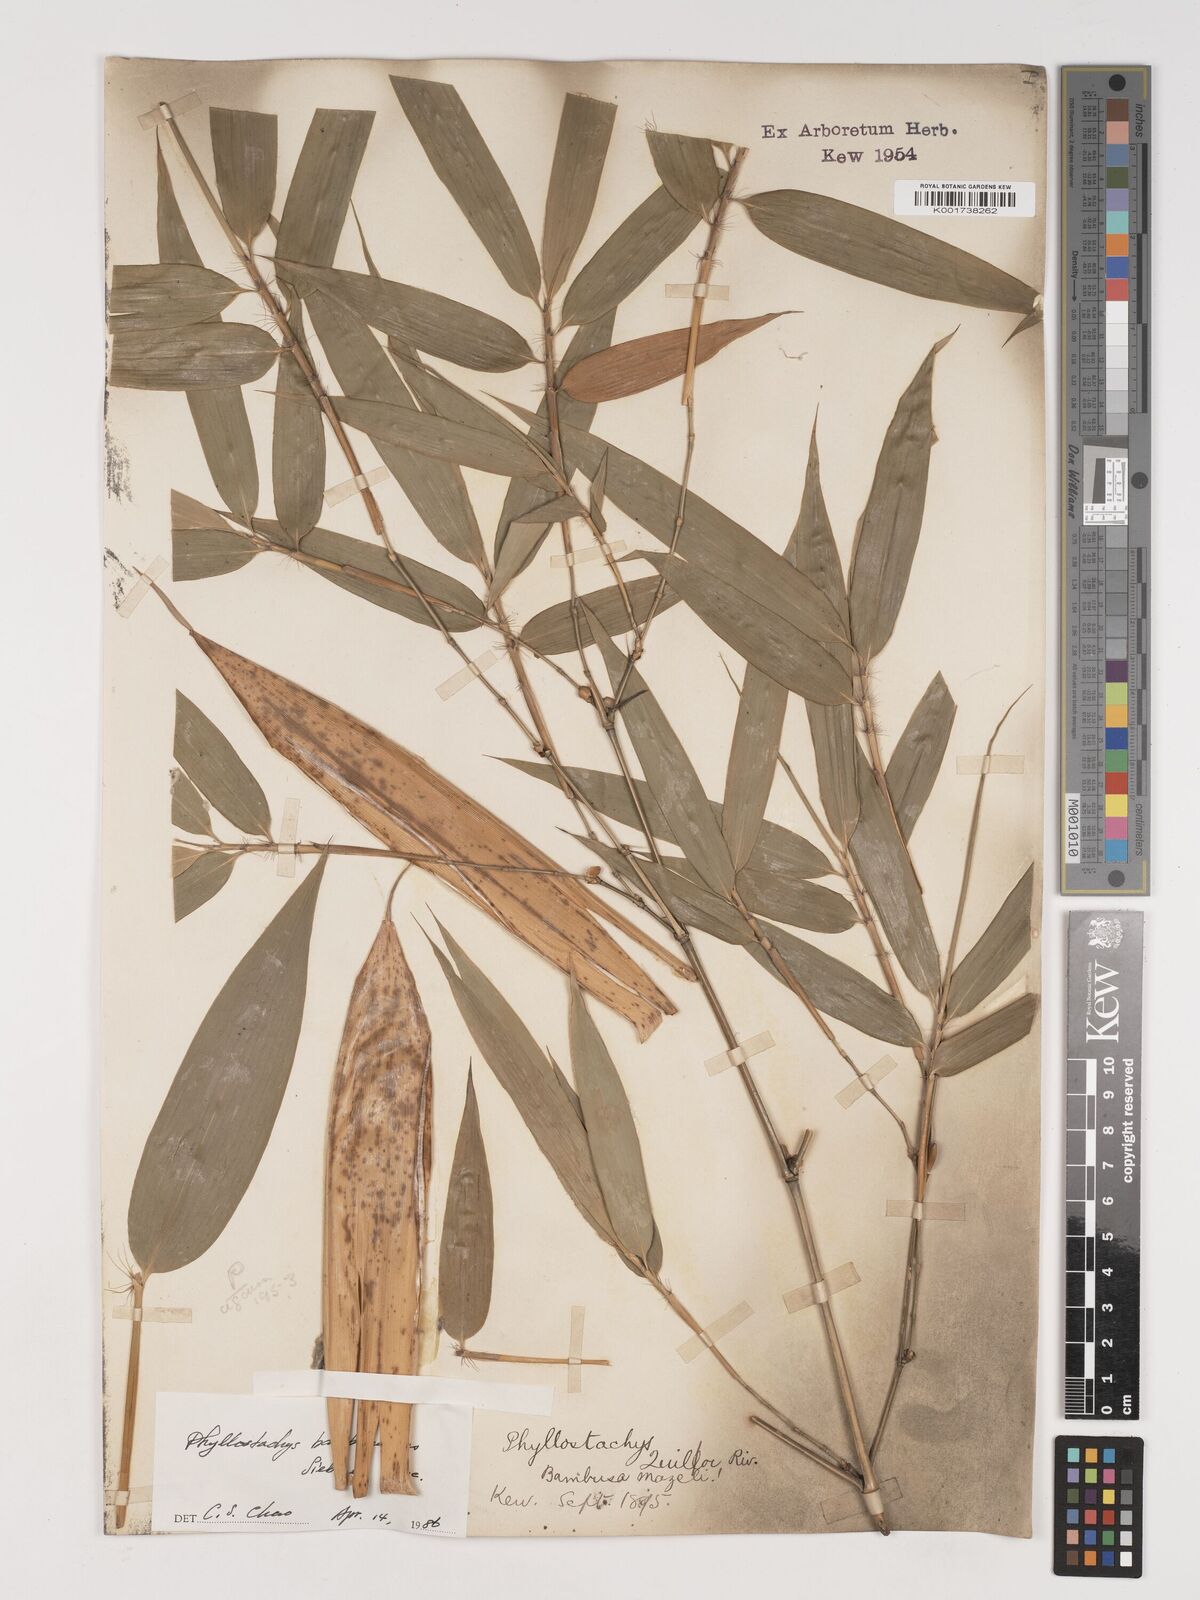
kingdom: Plantae
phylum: Tracheophyta
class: Liliopsida
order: Poales
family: Poaceae
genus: Phyllostachys
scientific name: Phyllostachys reticulata
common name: Bamboo
